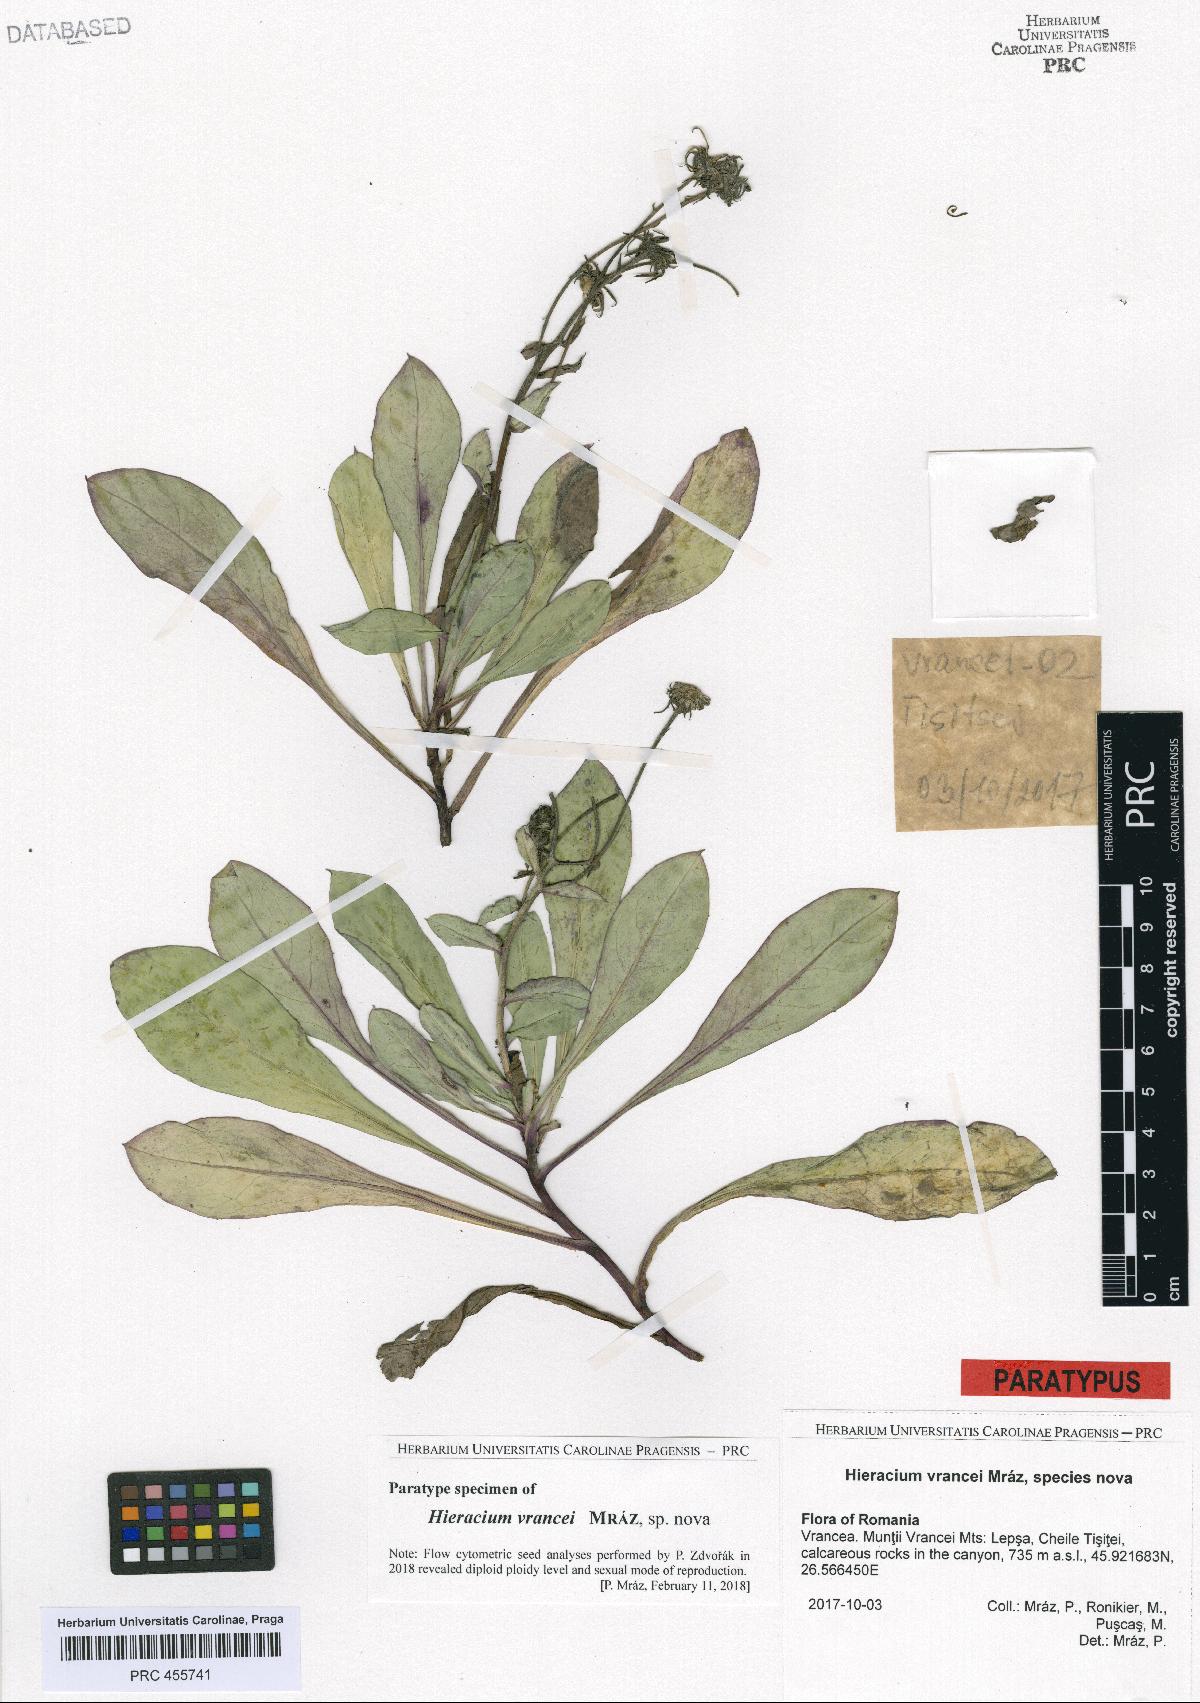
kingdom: Plantae
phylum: Tracheophyta
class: Magnoliopsida
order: Asterales
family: Asteraceae
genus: Hieracium
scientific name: Hieracium
